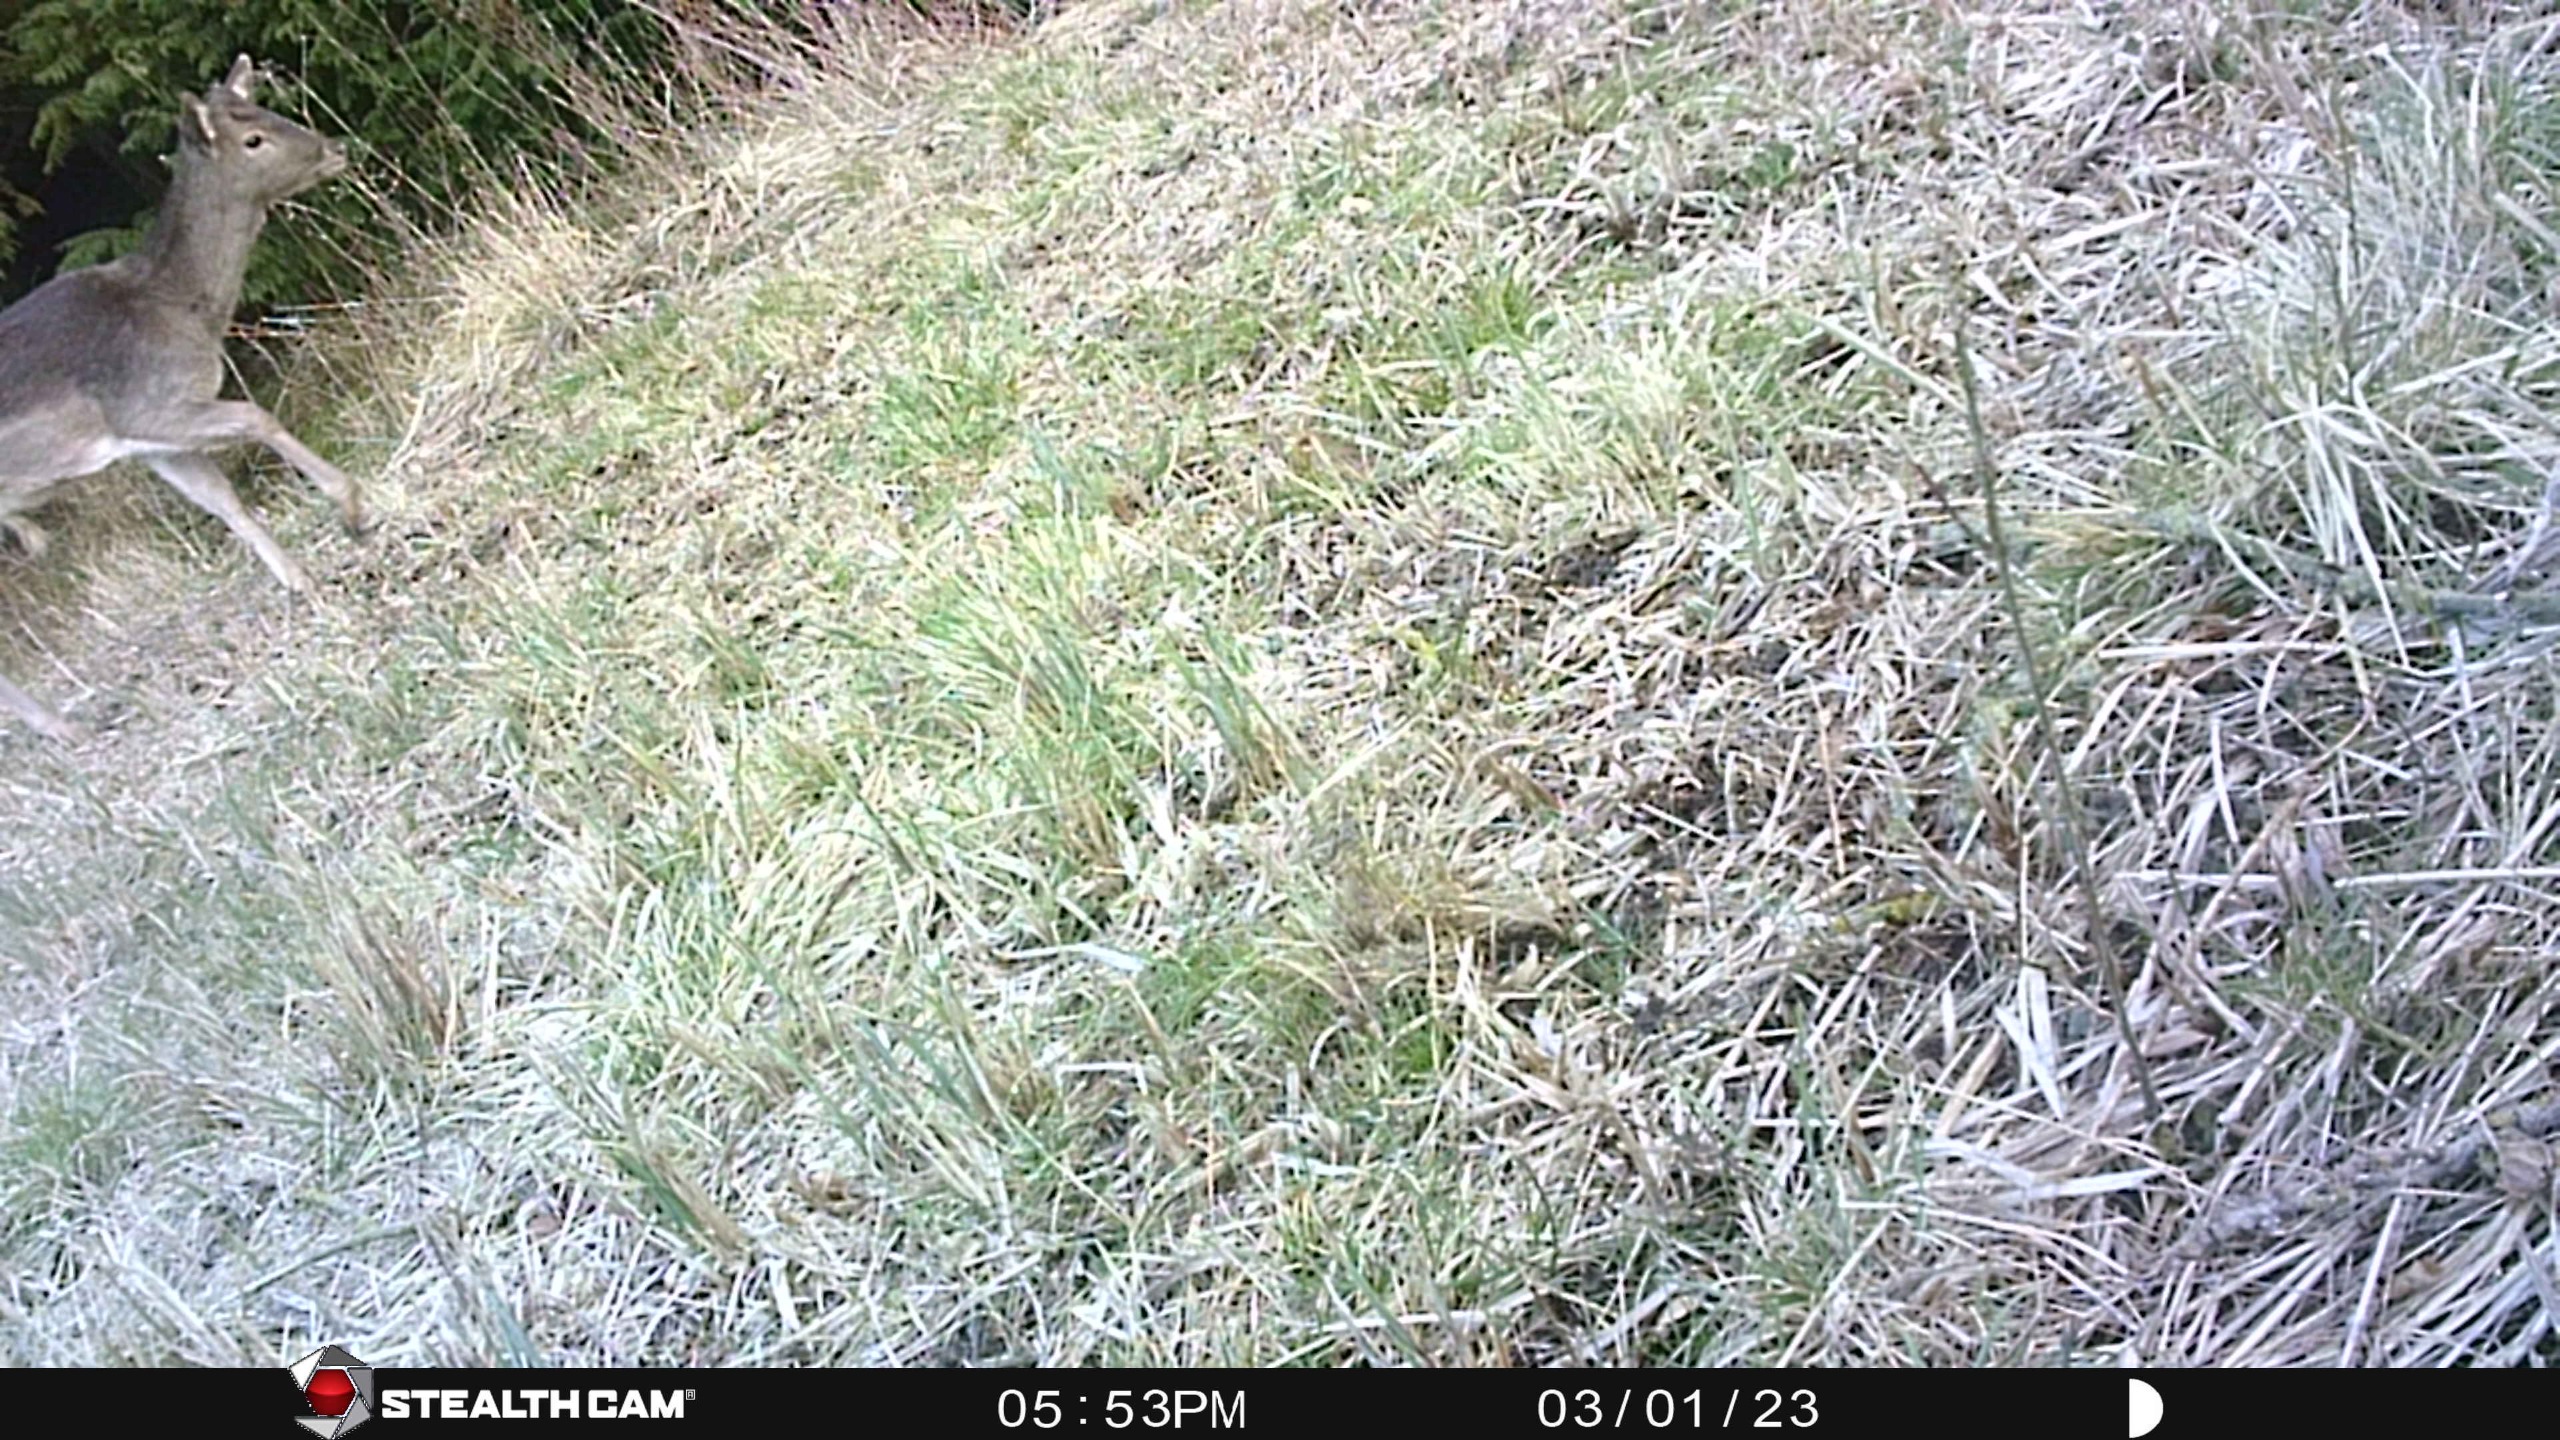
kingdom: Animalia
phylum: Chordata
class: Mammalia
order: Artiodactyla
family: Cervidae
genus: Dama
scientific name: Dama dama
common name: Dådyr
